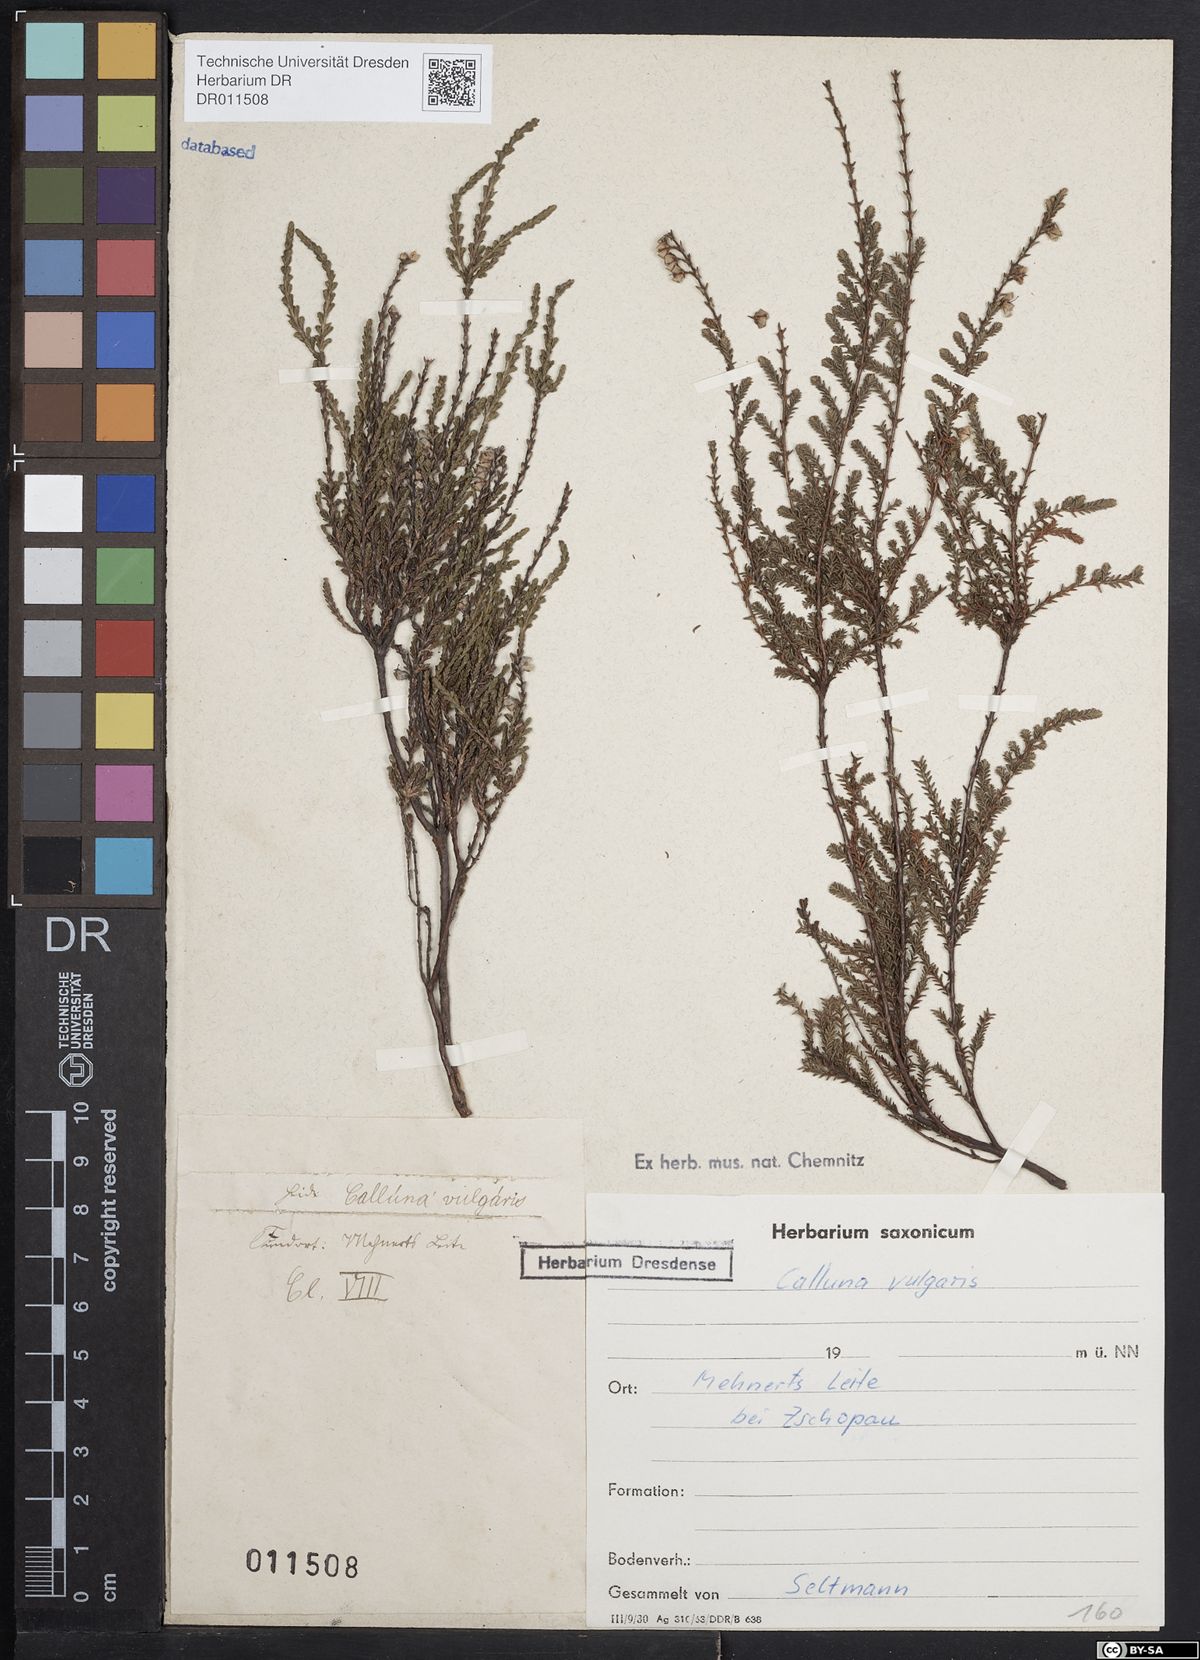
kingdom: Plantae
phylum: Tracheophyta
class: Magnoliopsida
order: Ericales
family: Ericaceae
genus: Calluna
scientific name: Calluna vulgaris
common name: Heather
